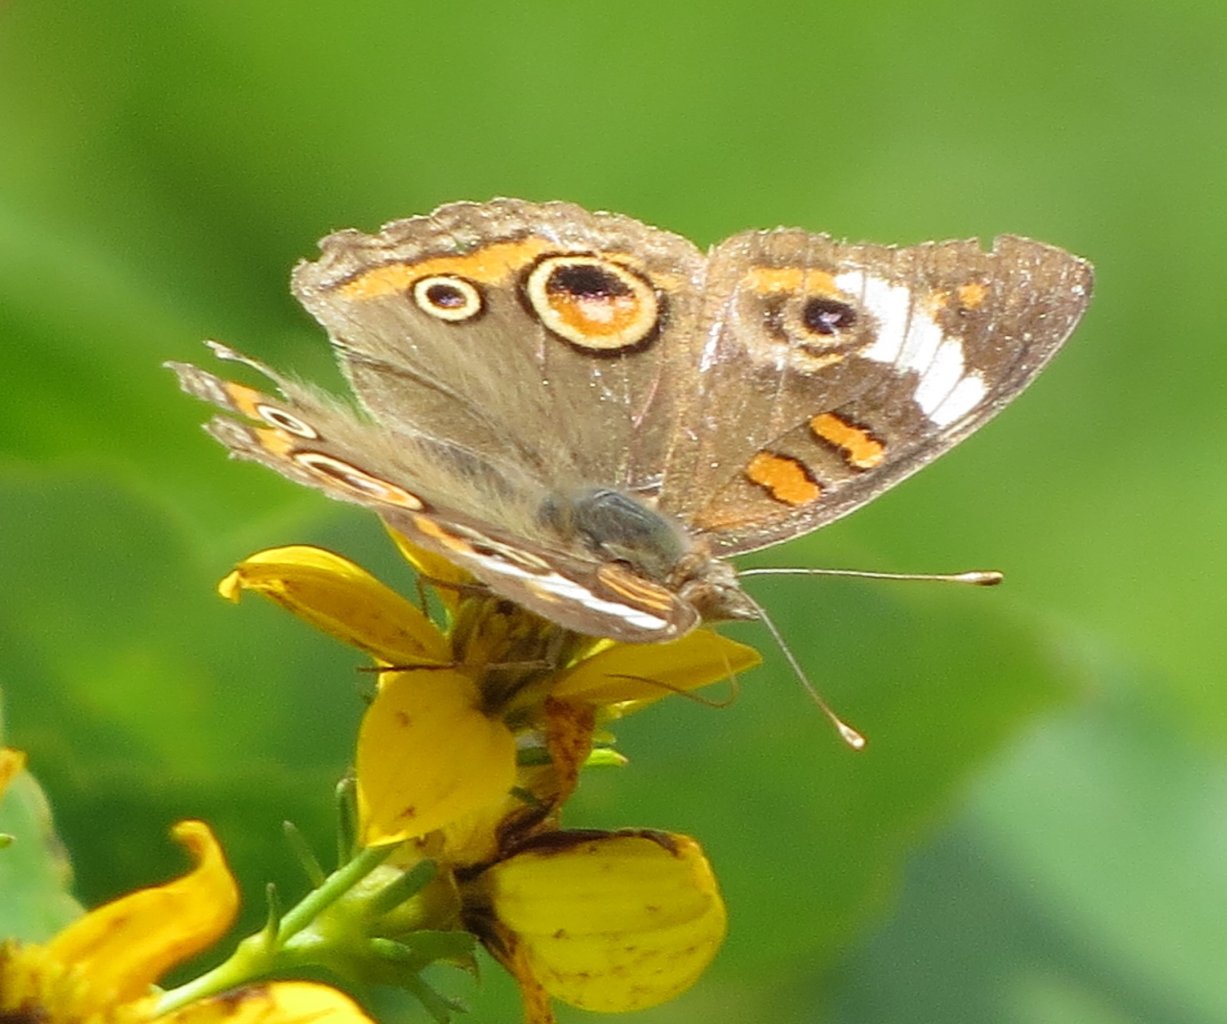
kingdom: Animalia
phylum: Arthropoda
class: Insecta
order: Lepidoptera
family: Nymphalidae
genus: Junonia
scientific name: Junonia coenia
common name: Common Buckeye
